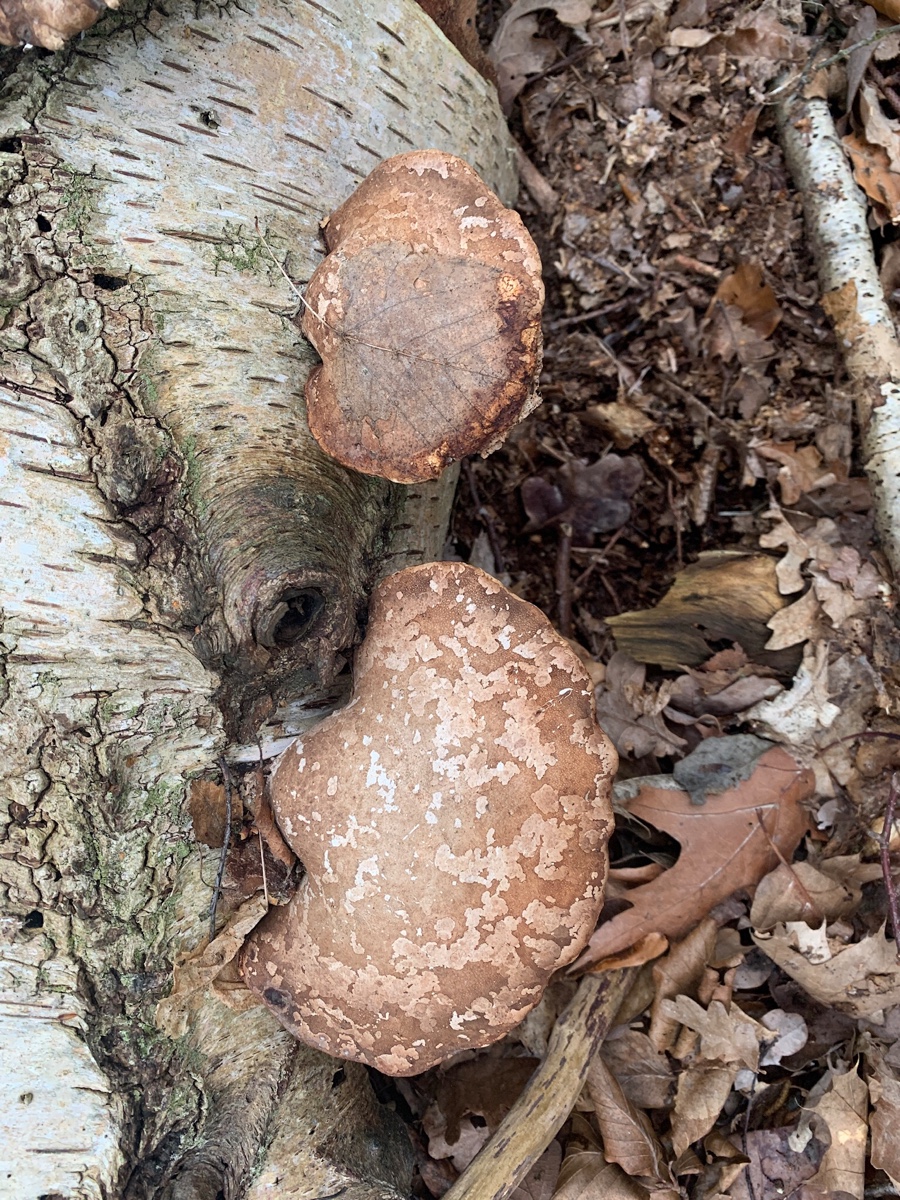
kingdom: Fungi
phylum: Basidiomycota
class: Agaricomycetes
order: Polyporales
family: Fomitopsidaceae
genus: Fomitopsis
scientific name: Fomitopsis betulina
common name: birkeporesvamp
